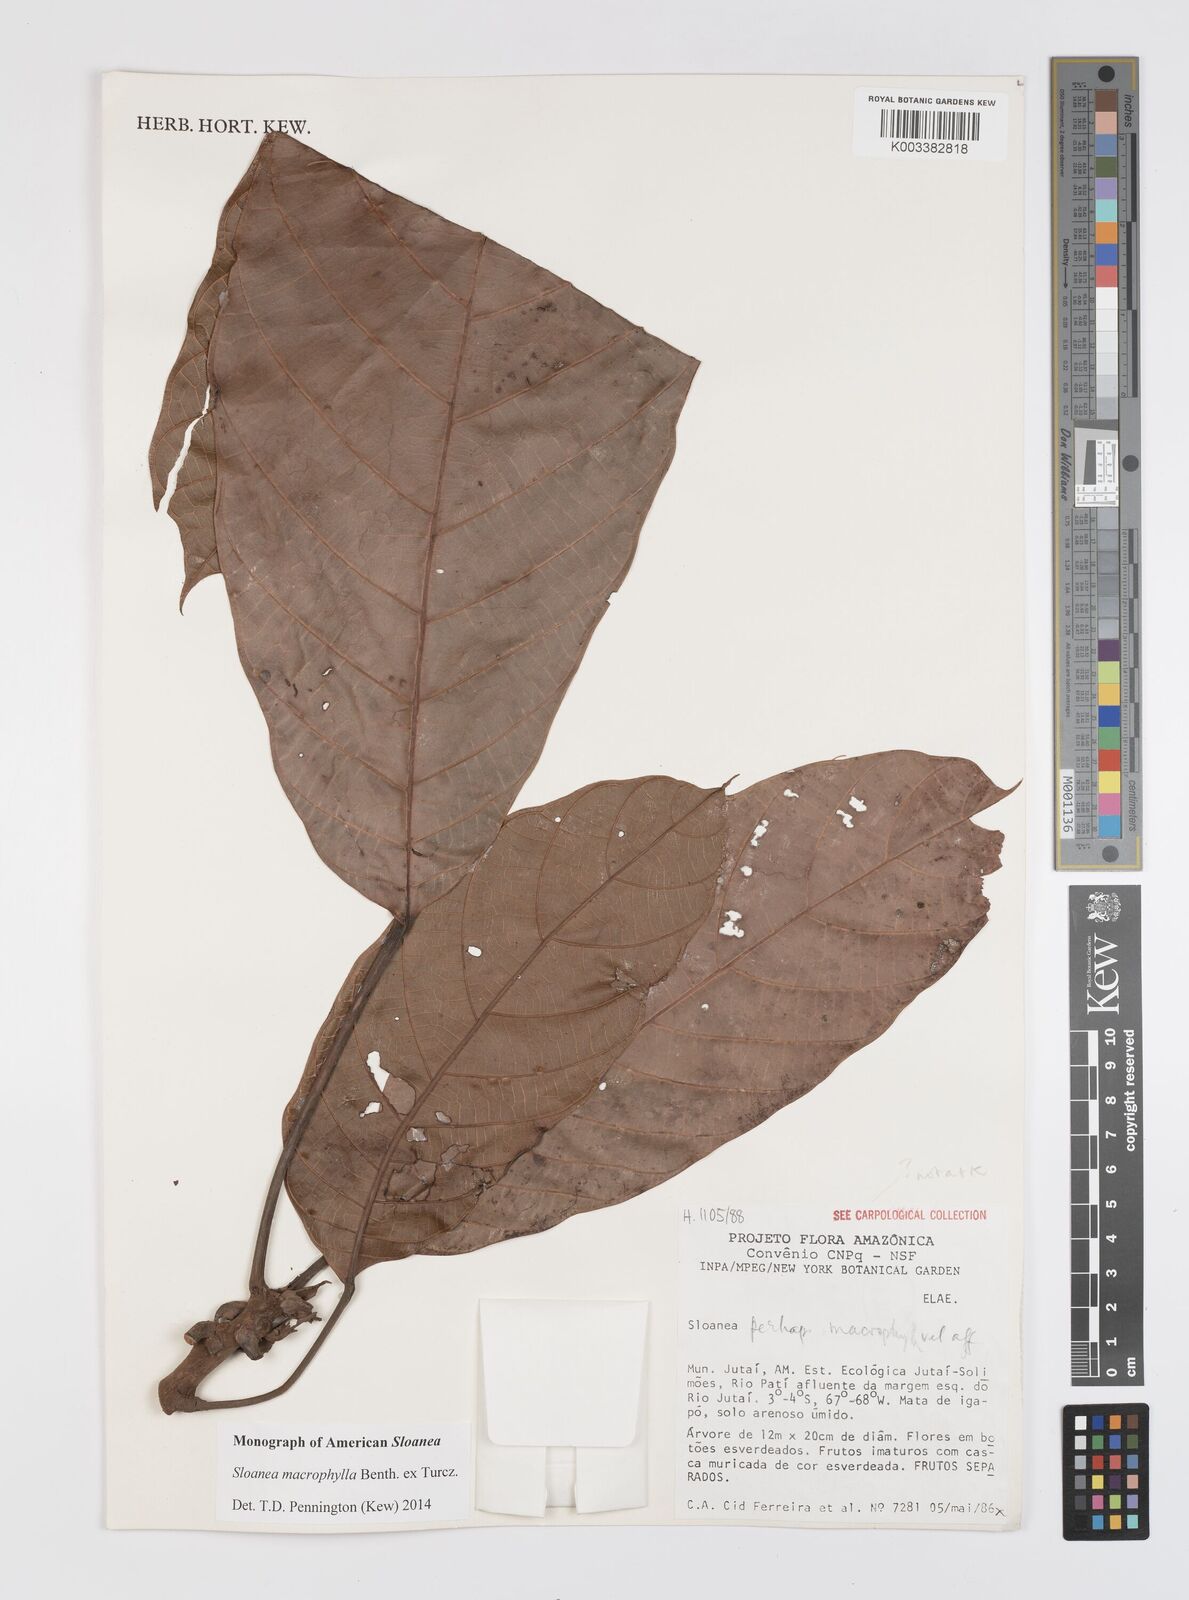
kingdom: Plantae
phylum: Tracheophyta
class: Magnoliopsida
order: Oxalidales
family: Elaeocarpaceae
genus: Sloanea
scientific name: Sloanea macrophylla
